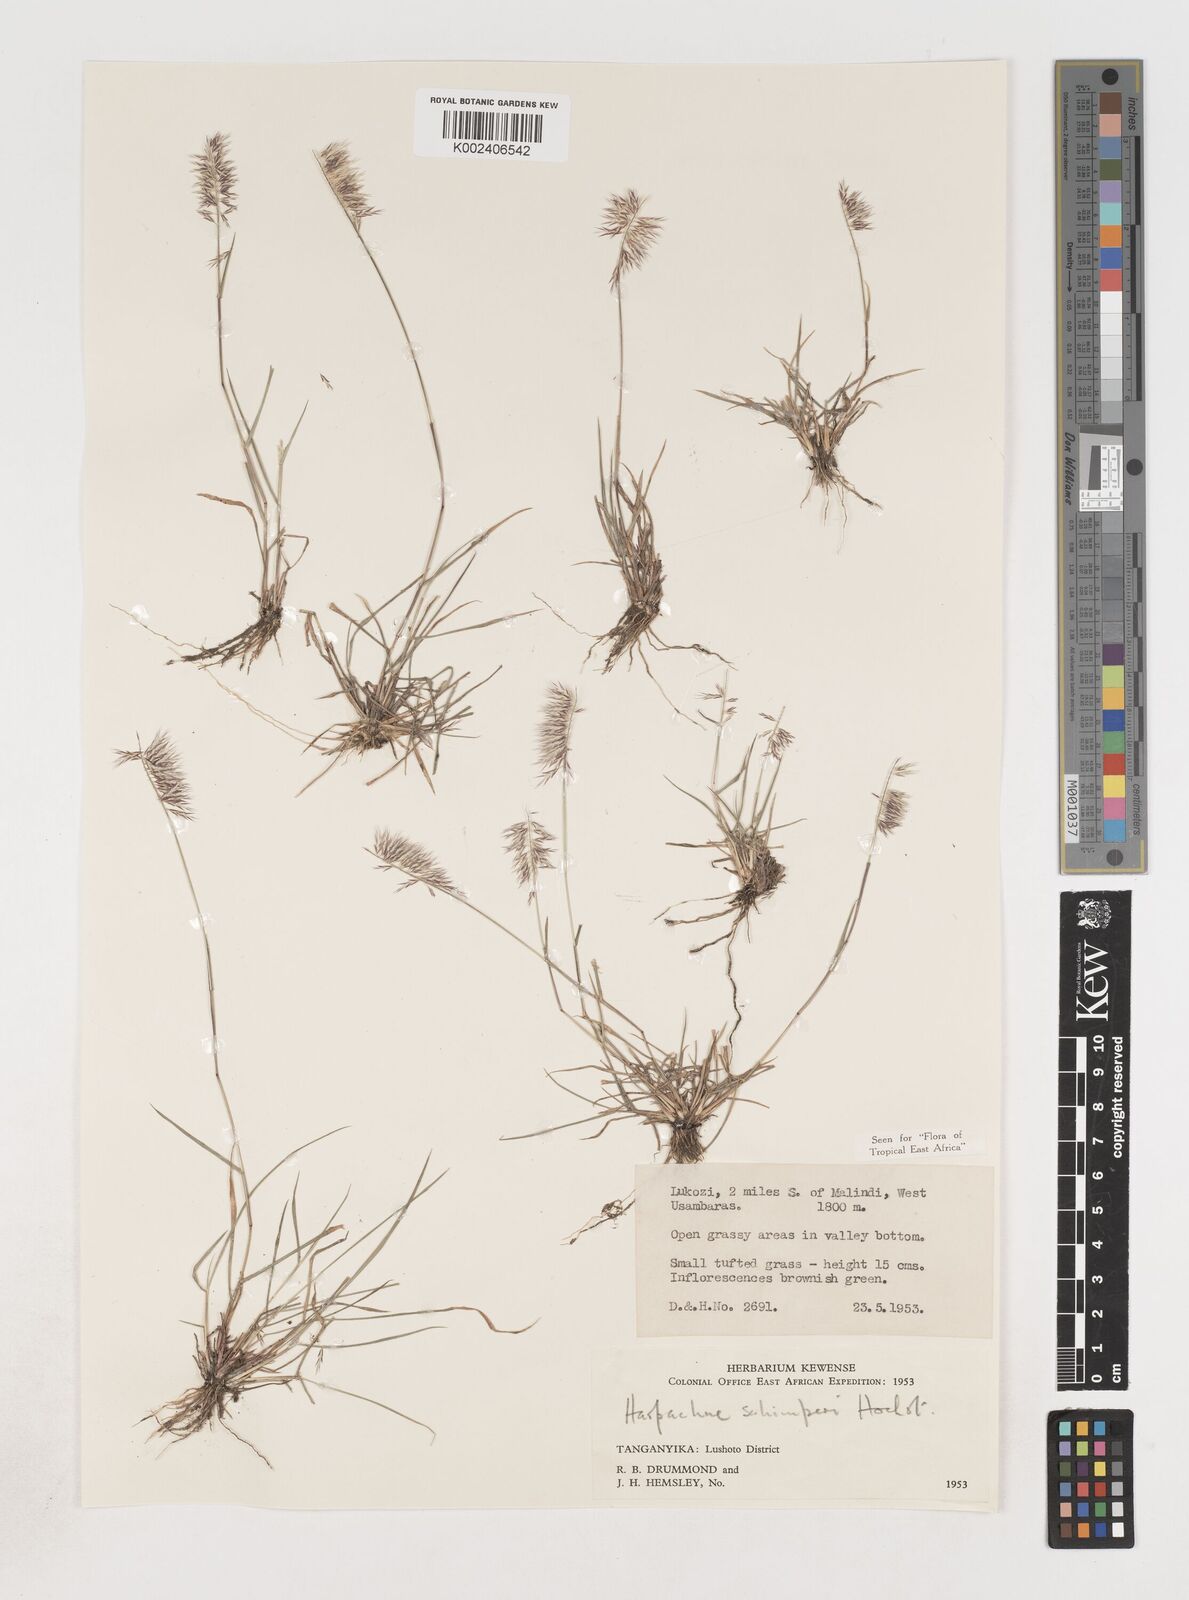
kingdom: Plantae
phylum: Tracheophyta
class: Liliopsida
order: Poales
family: Poaceae
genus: Harpachne
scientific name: Harpachne schimperi
